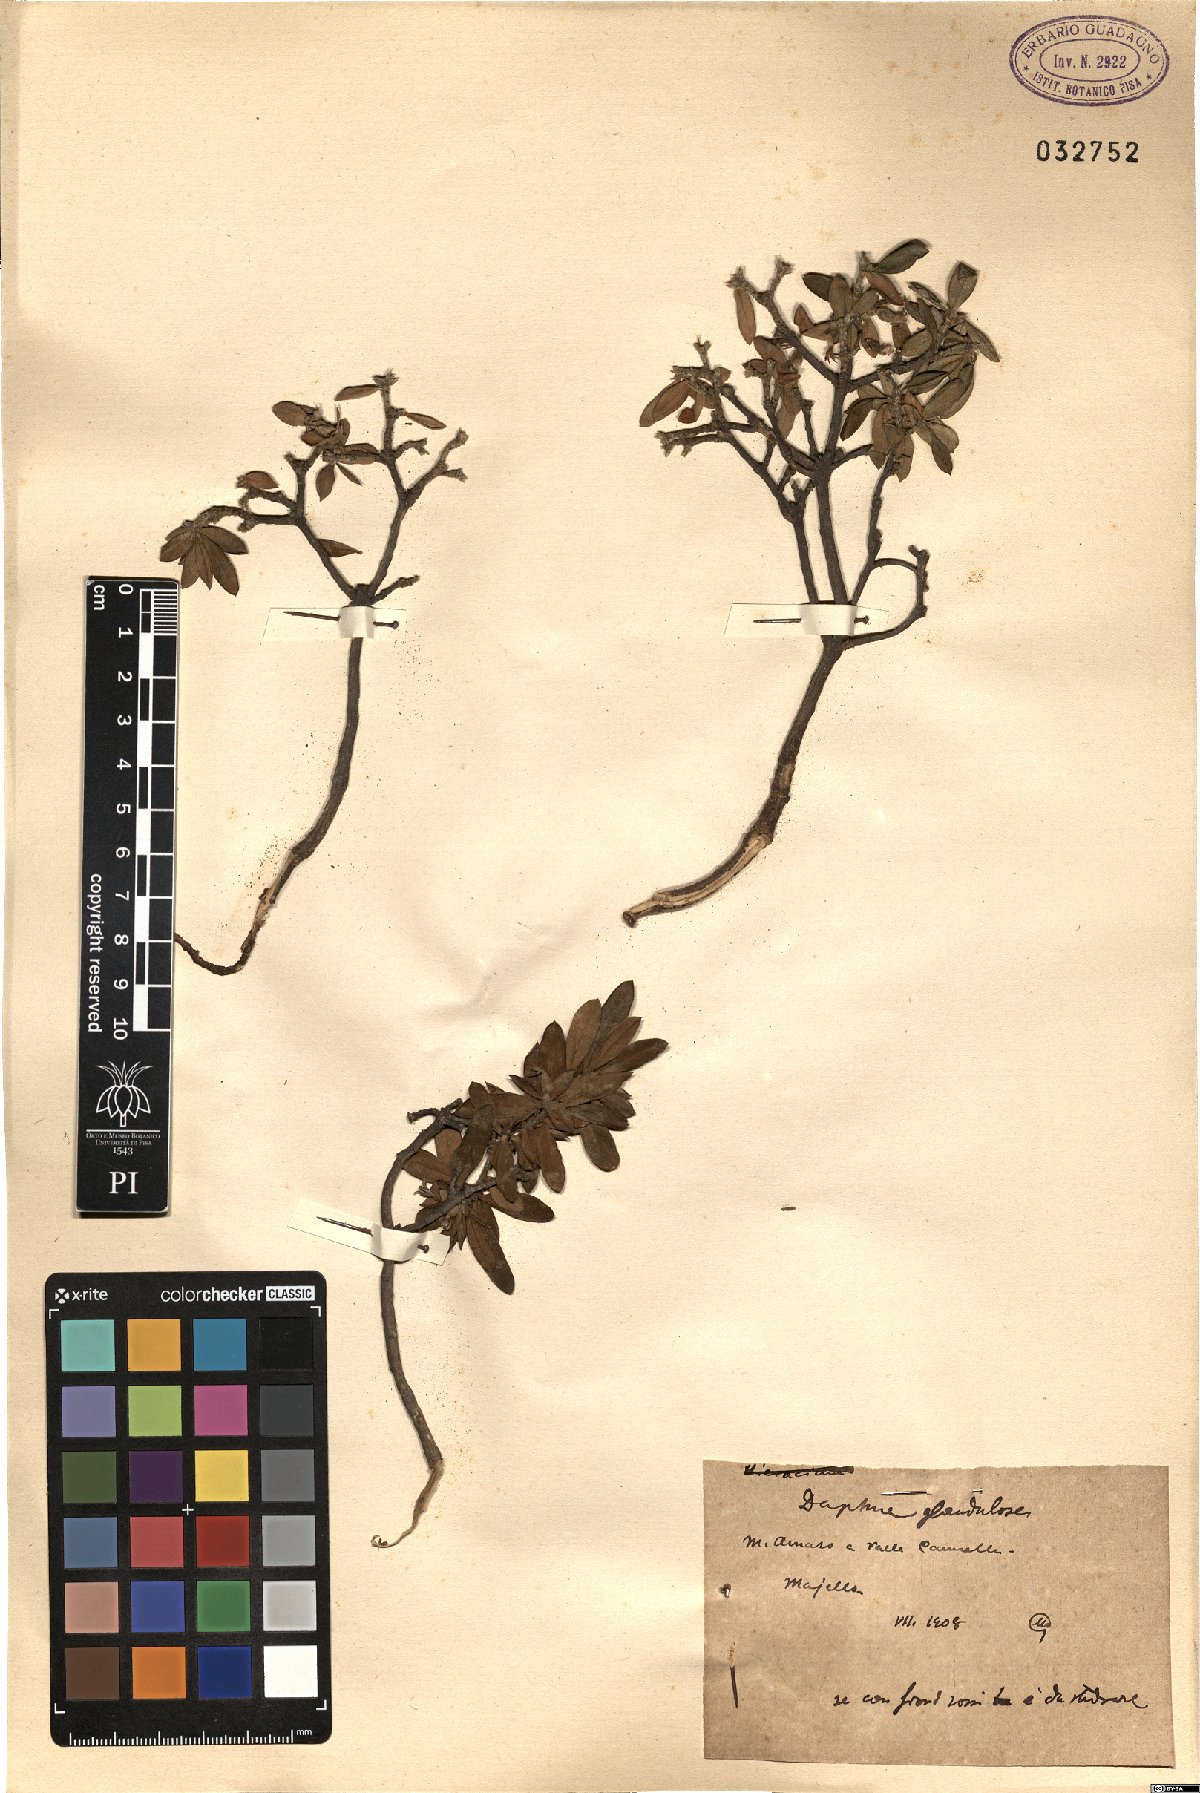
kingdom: Plantae
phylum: Tracheophyta
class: Magnoliopsida
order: Malvales
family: Thymelaeaceae
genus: Daphne
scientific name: Daphne oleoides
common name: Spurge-olive
